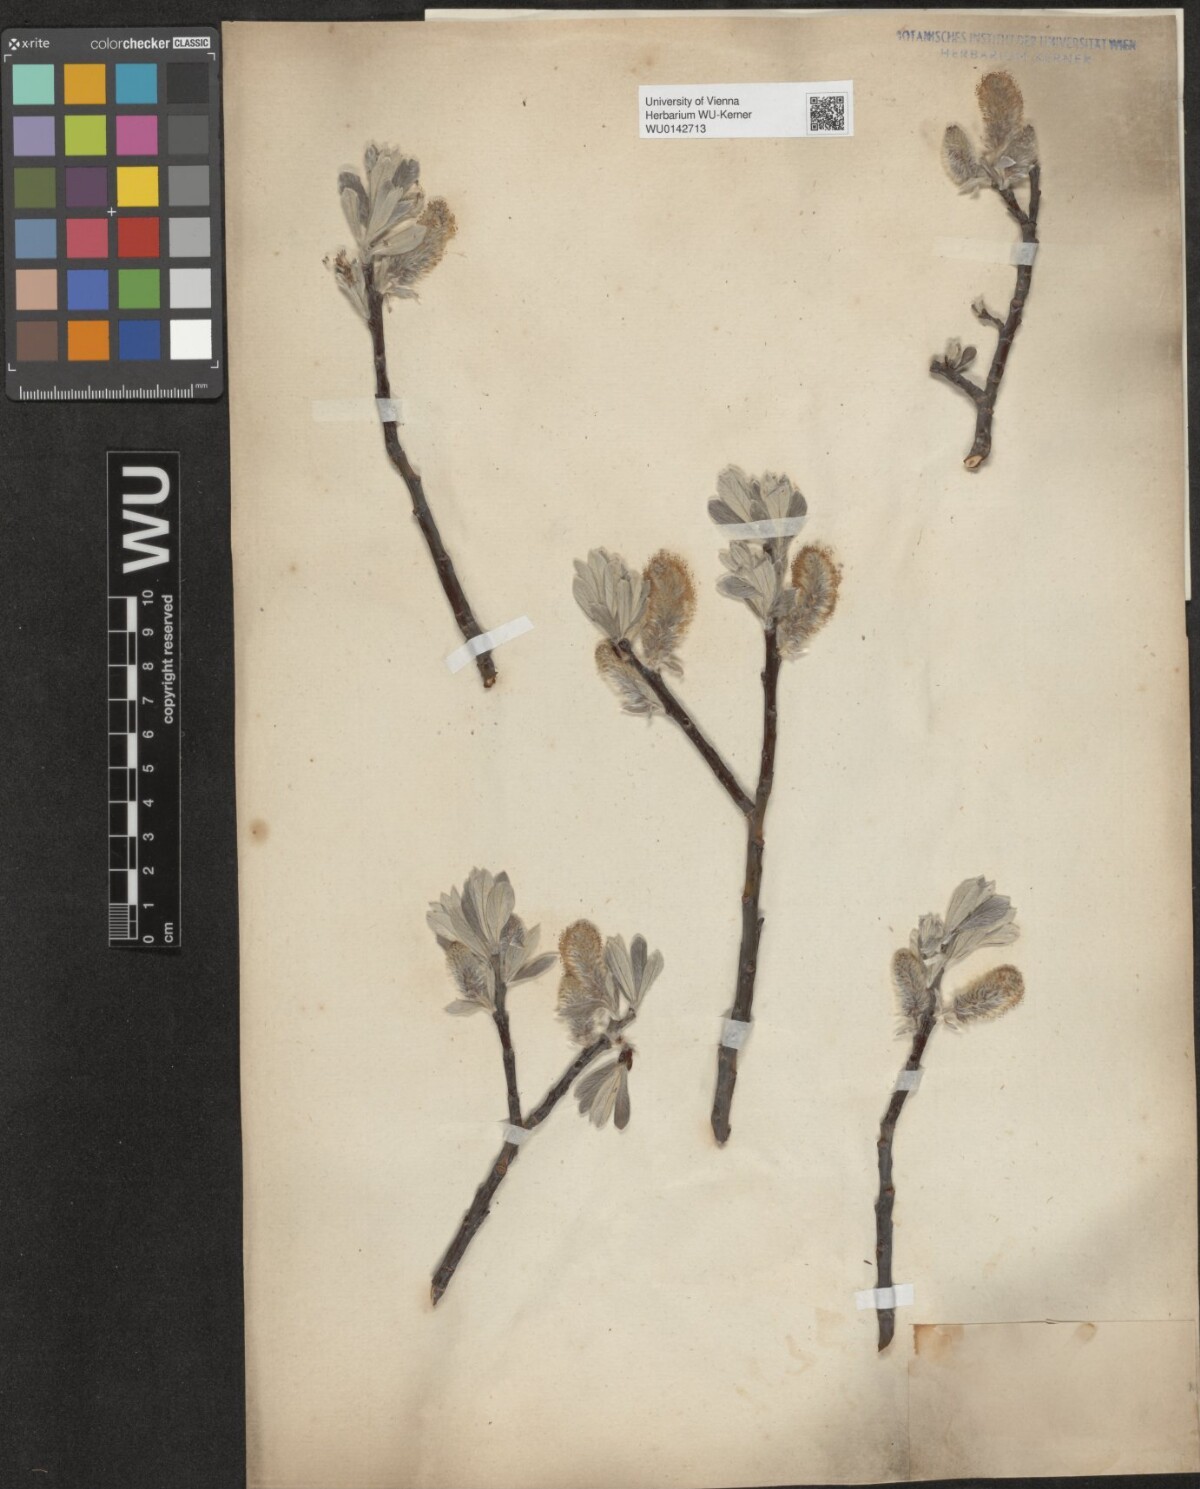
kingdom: Plantae
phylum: Tracheophyta
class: Magnoliopsida
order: Malpighiales
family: Salicaceae
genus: Salix
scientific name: Salix helvetica
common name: Swiss willow
